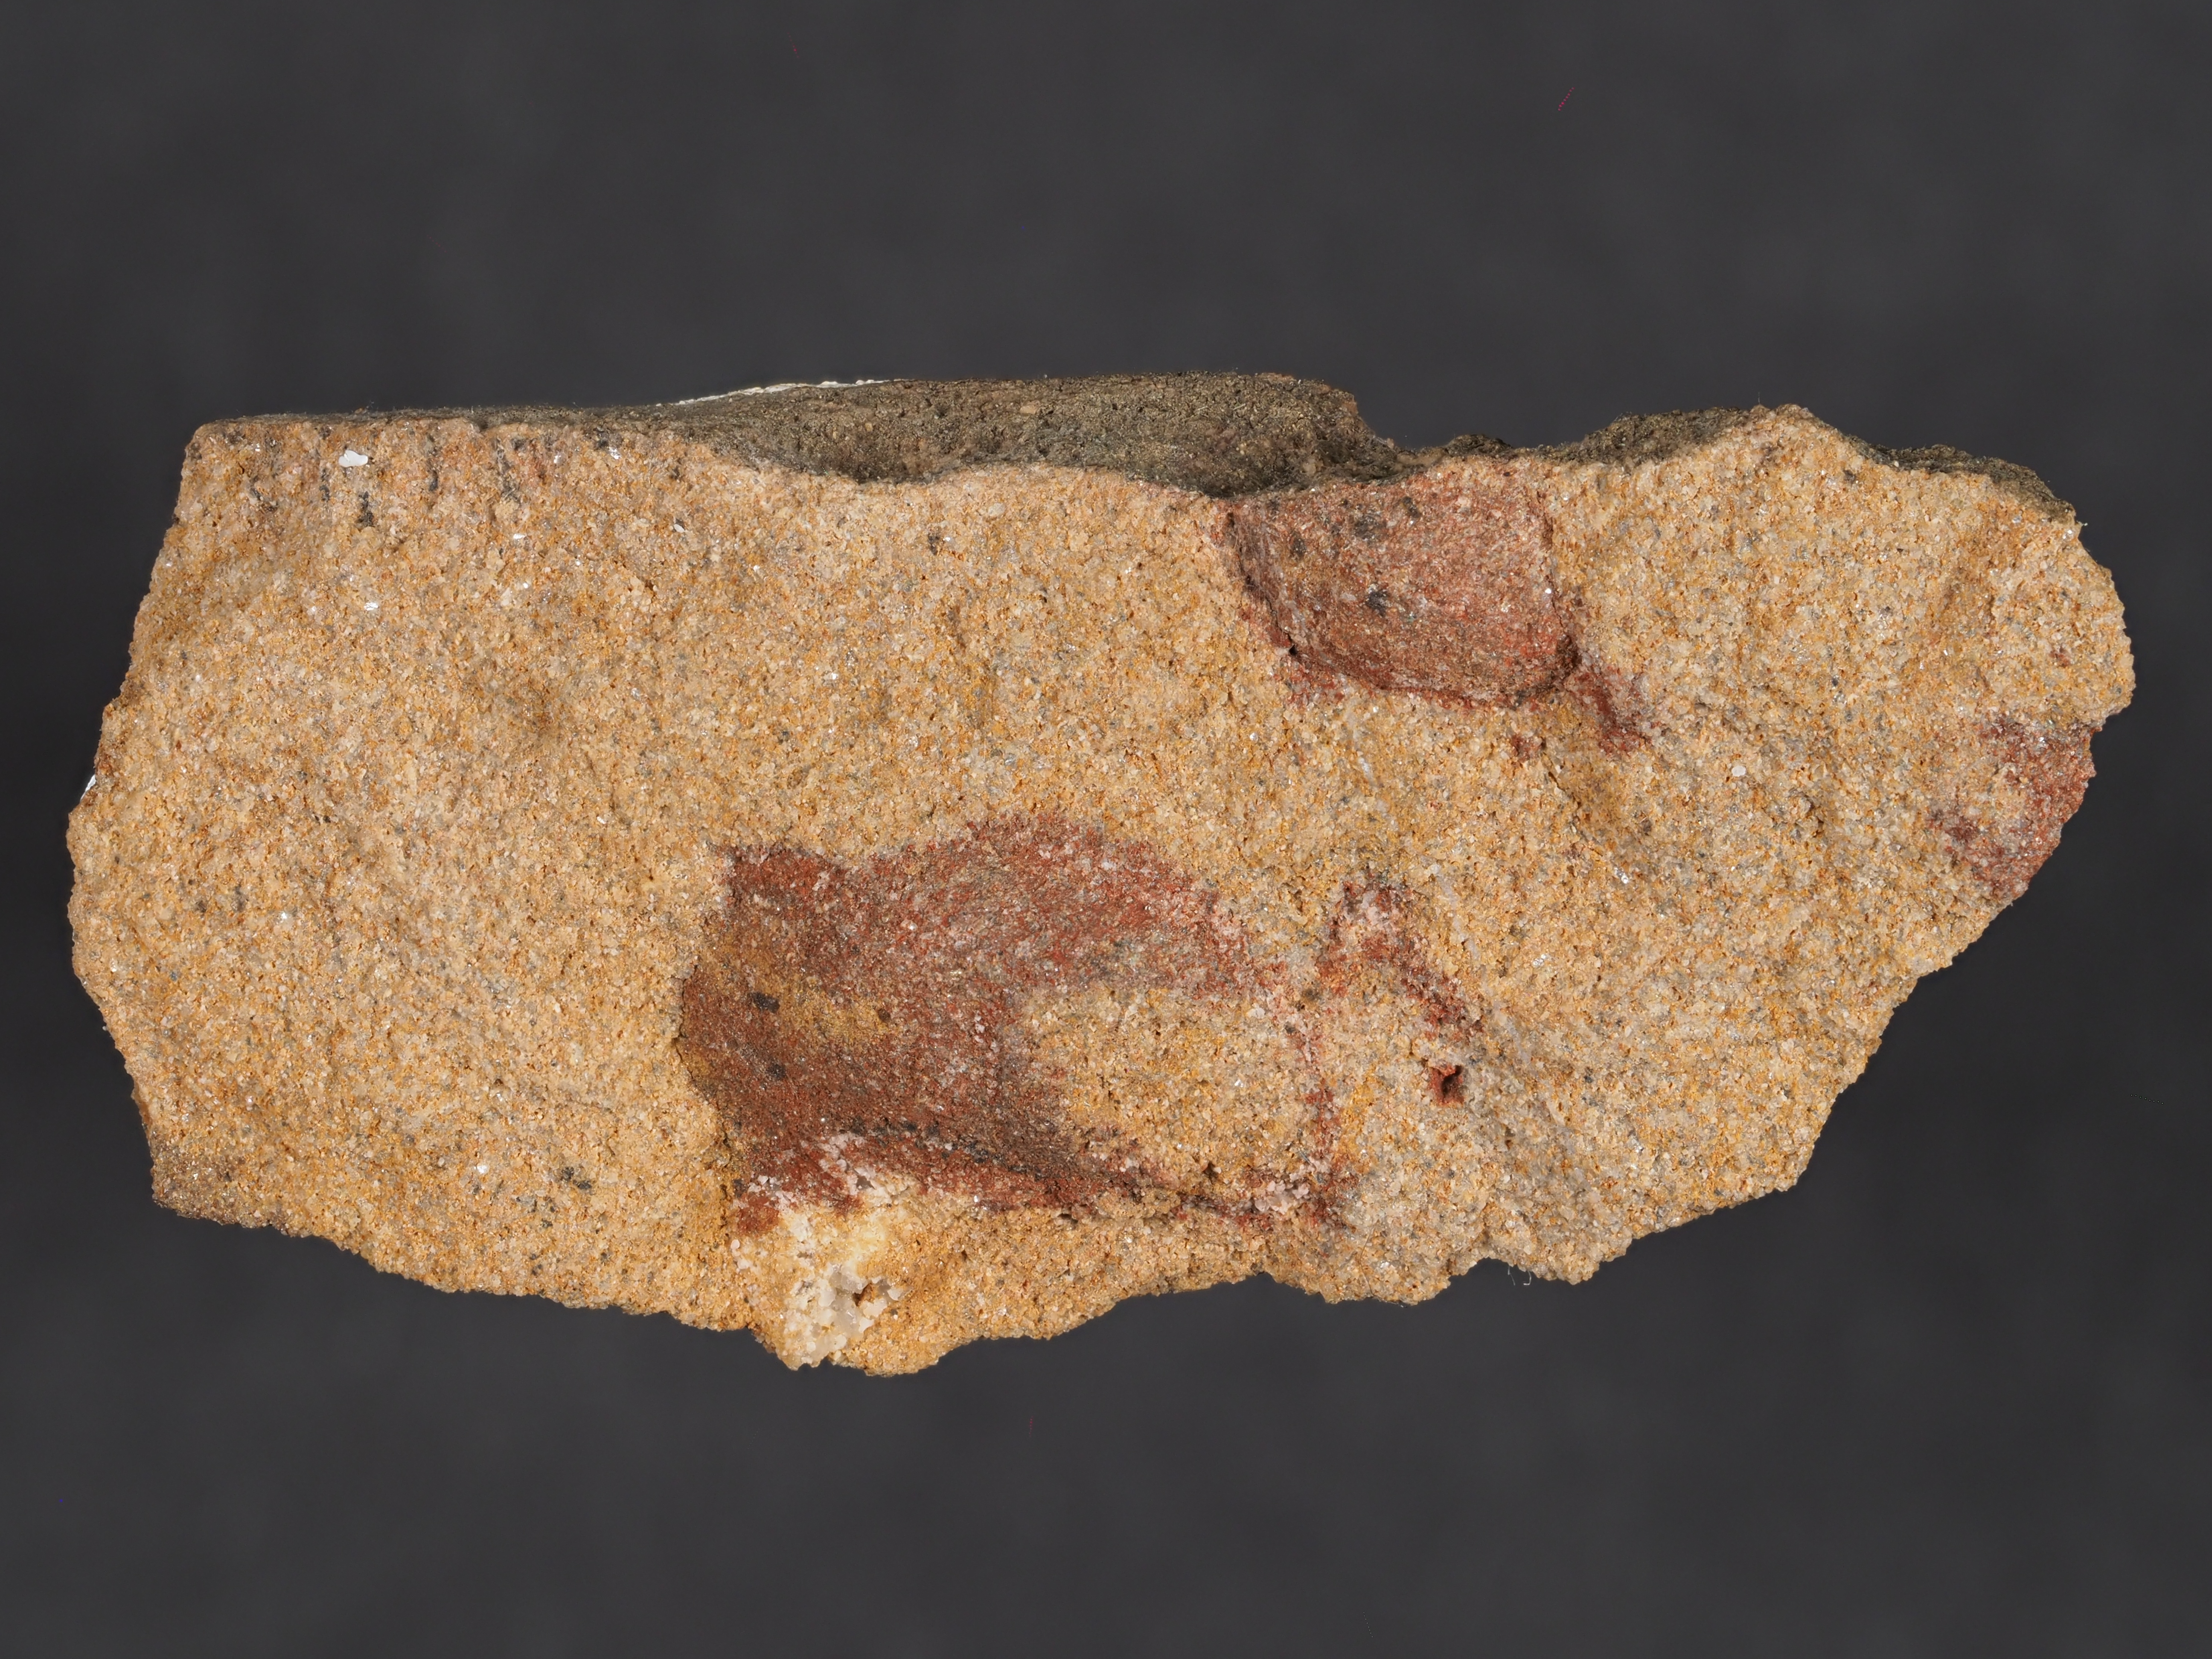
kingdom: Animalia
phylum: Mollusca
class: Gastropoda
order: Pleurotomariida
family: Eotomariidae
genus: Bembexia
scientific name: Bembexia
